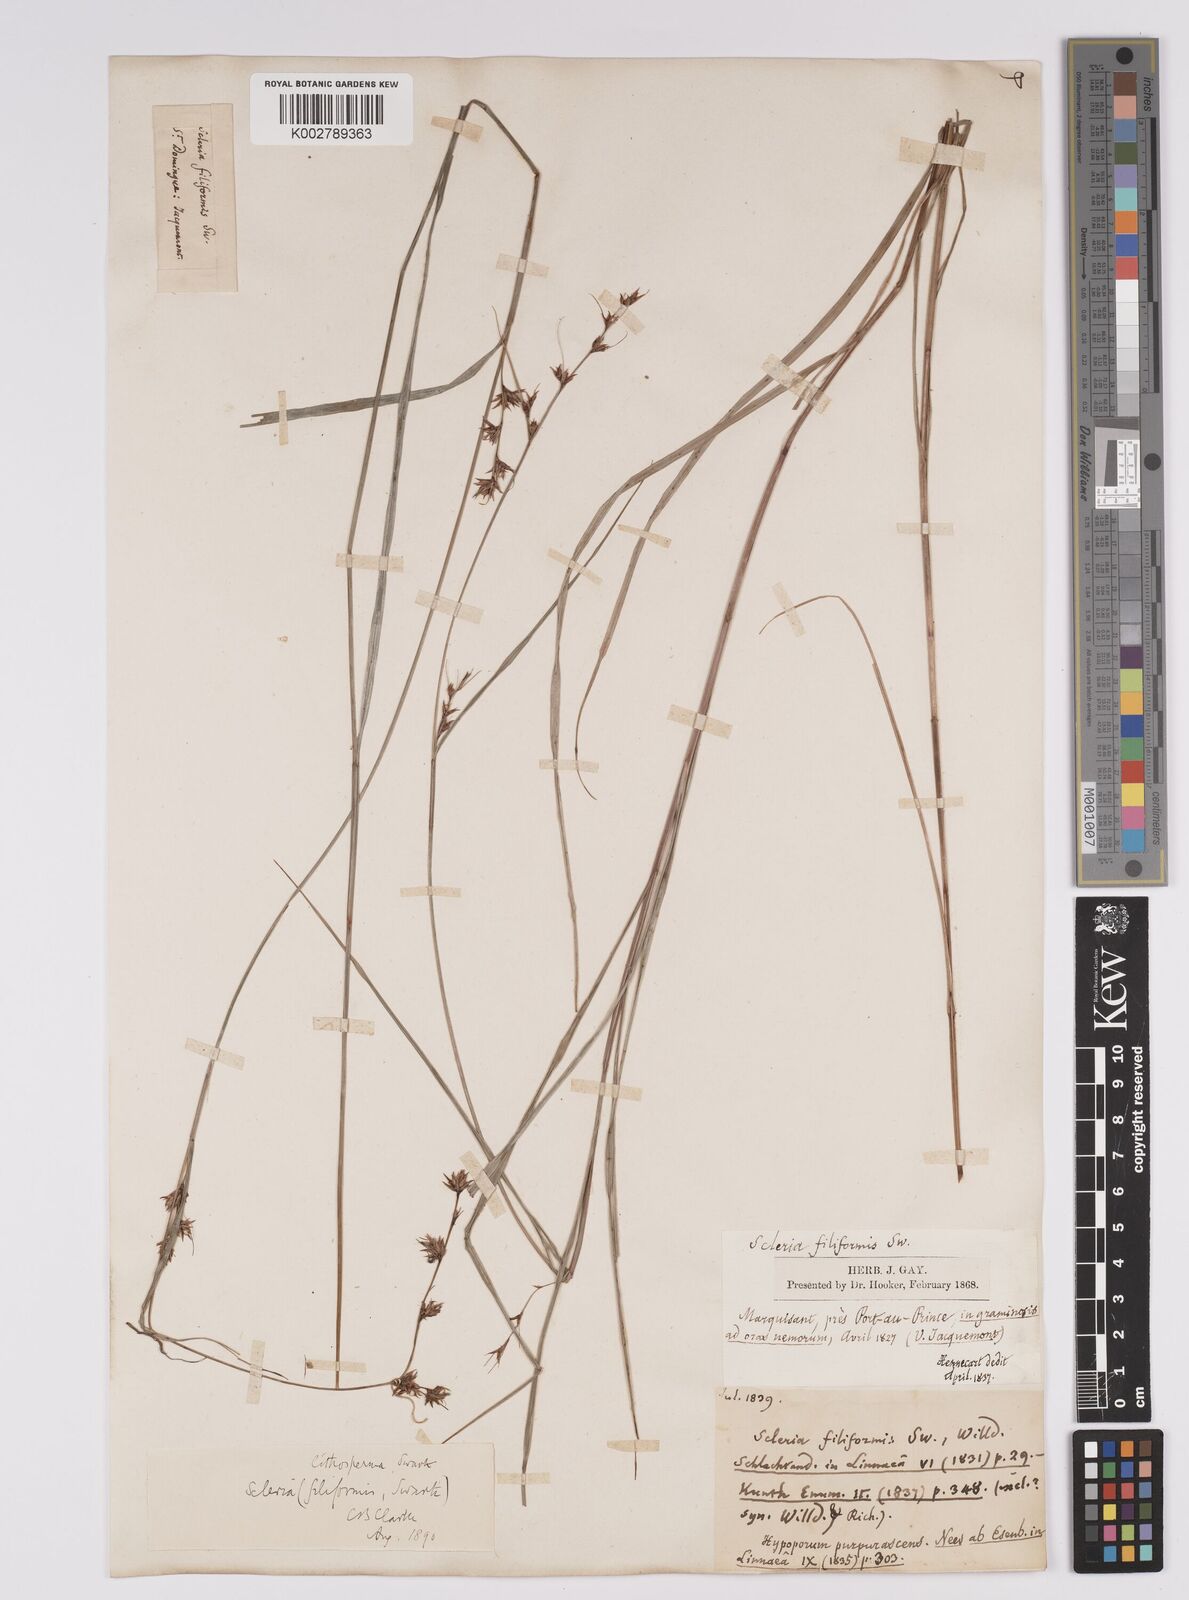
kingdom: Plantae
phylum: Tracheophyta
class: Liliopsida
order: Poales
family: Cyperaceae
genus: Scleria
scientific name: Scleria lithosperma
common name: Florida keys nut-rush
